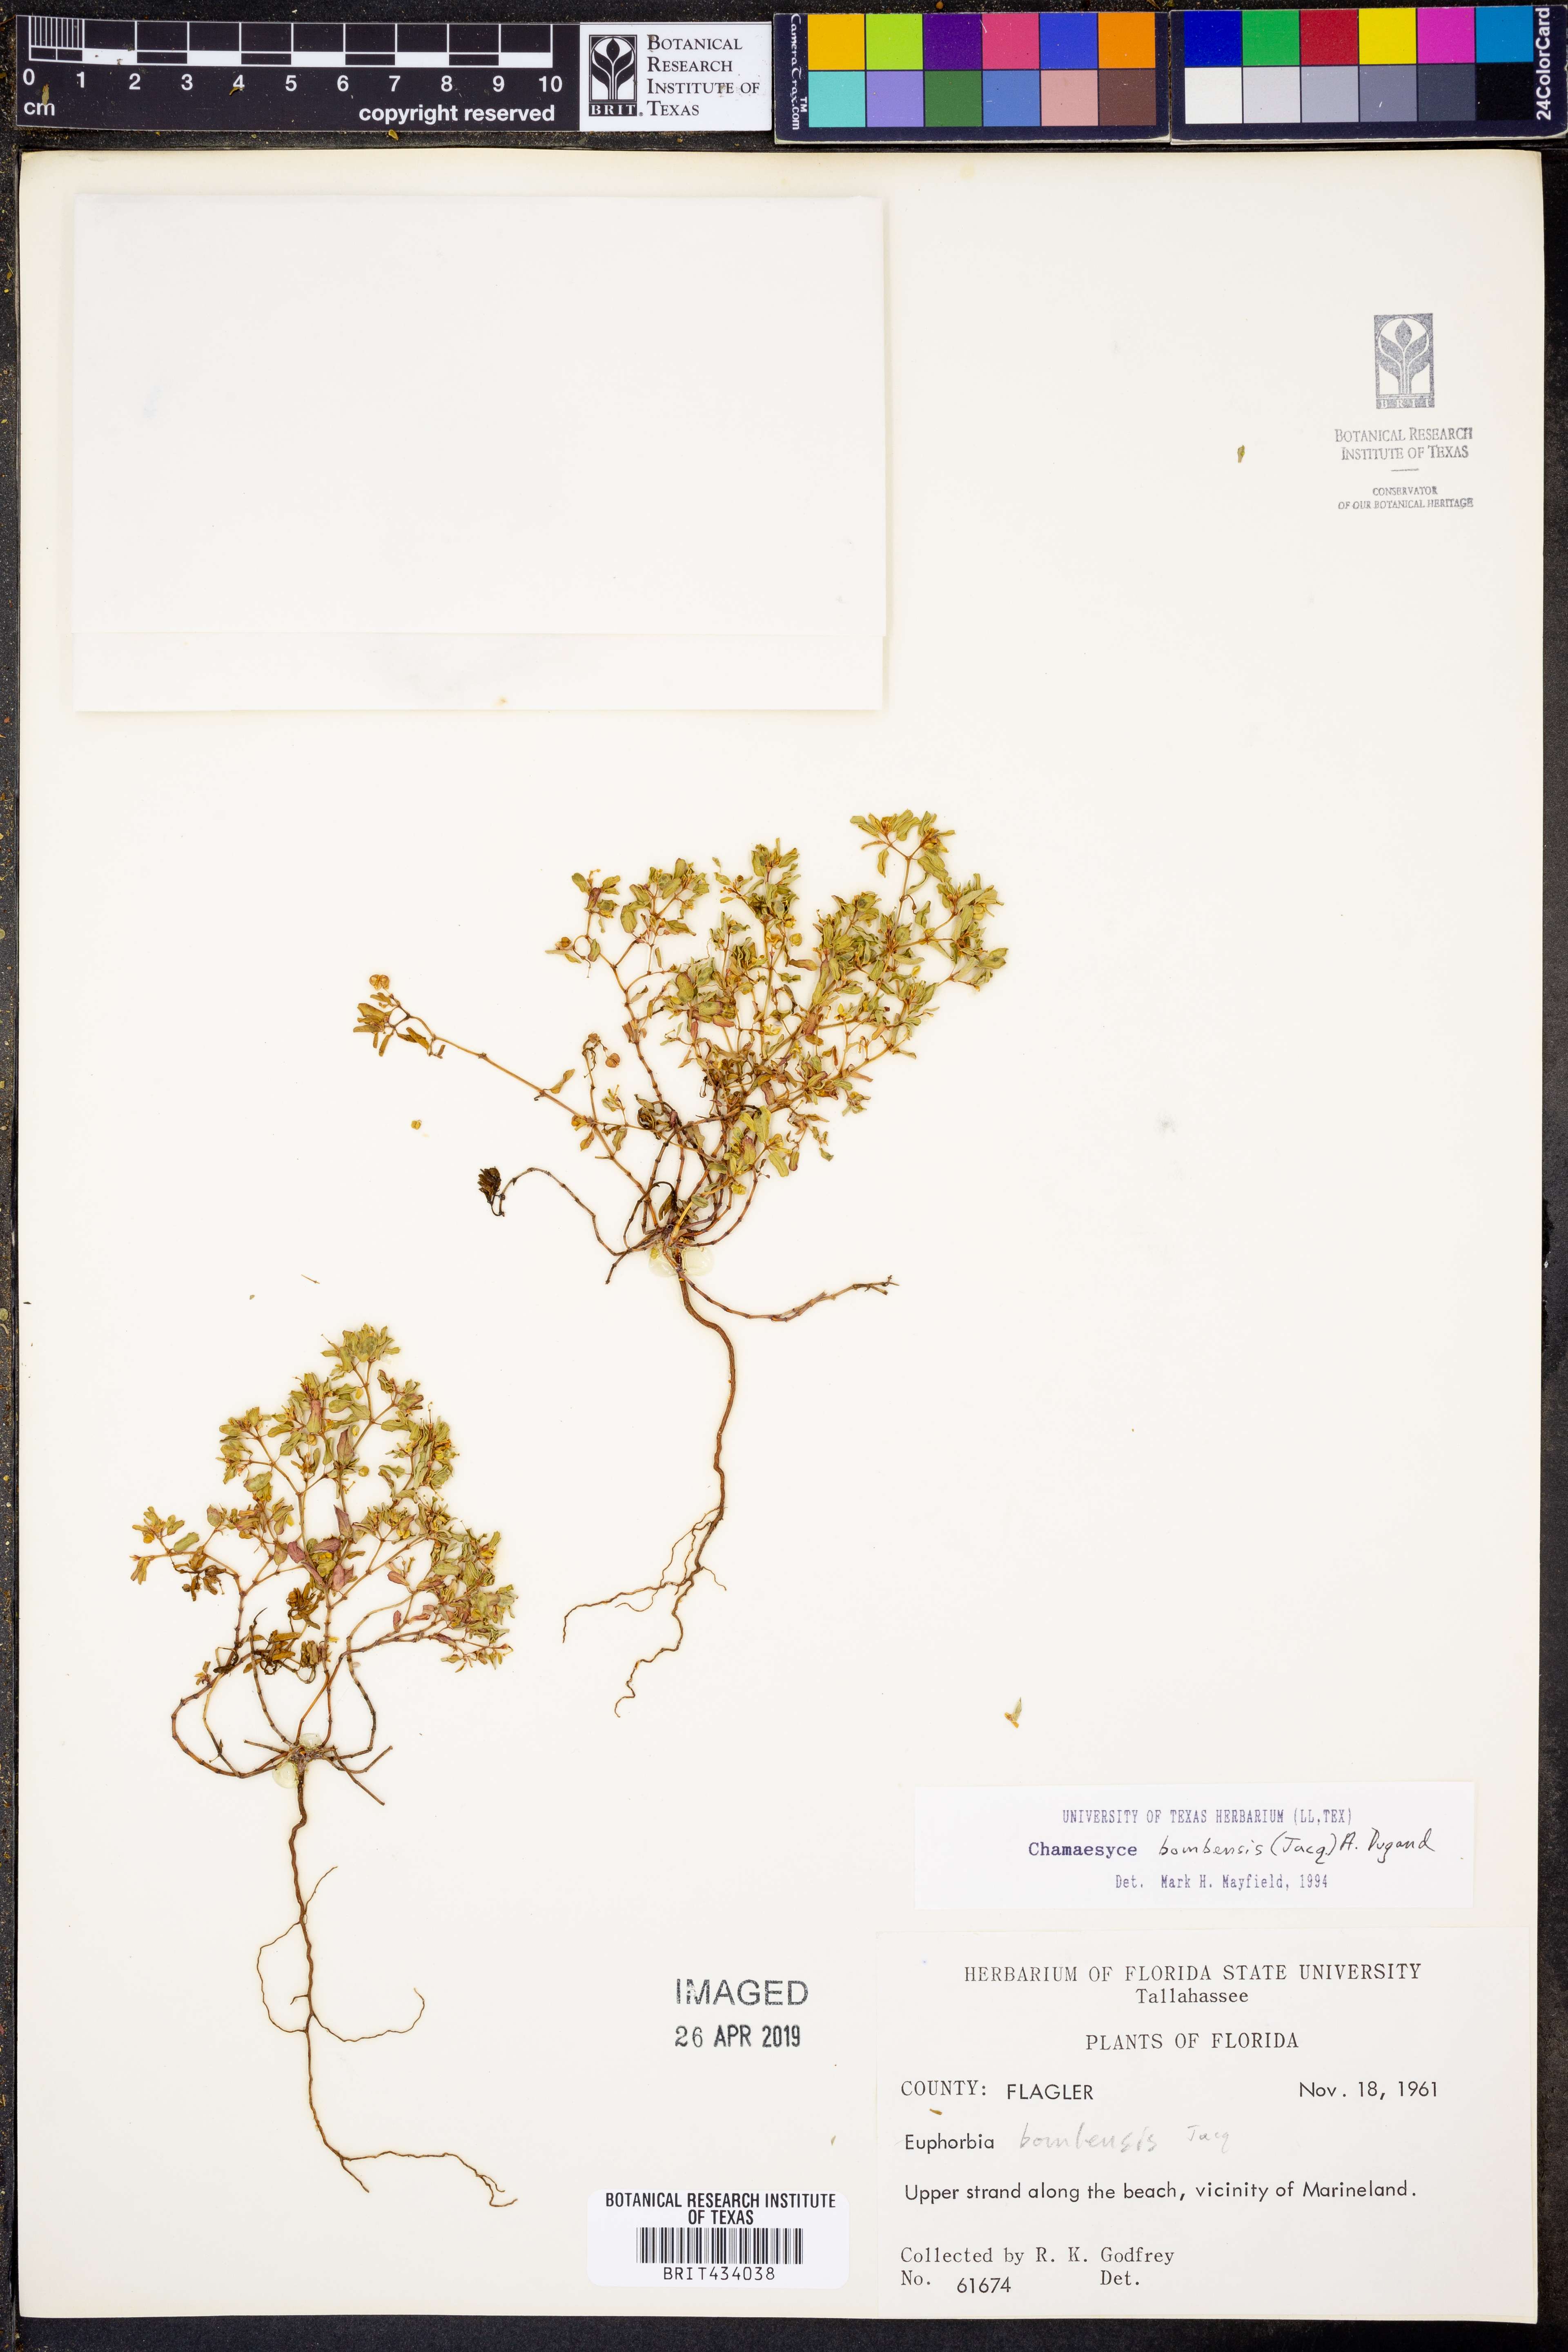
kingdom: Plantae
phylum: Tracheophyta
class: Magnoliopsida
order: Malpighiales
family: Euphorbiaceae
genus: Euphorbia
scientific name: Euphorbia bombensis
